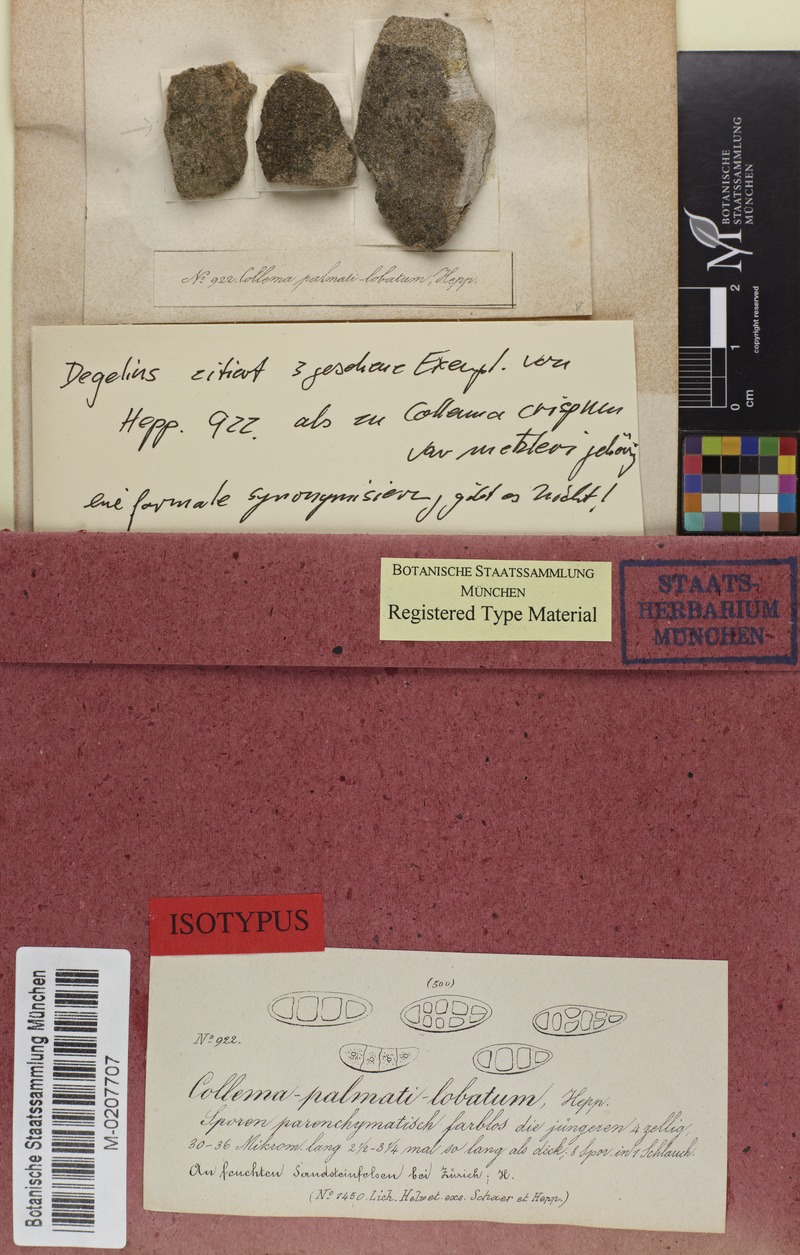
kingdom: Fungi
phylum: Ascomycota
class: Lecanoromycetes
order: Peltigerales
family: Collemataceae
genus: Blennothallia
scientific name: Blennothallia crispa
